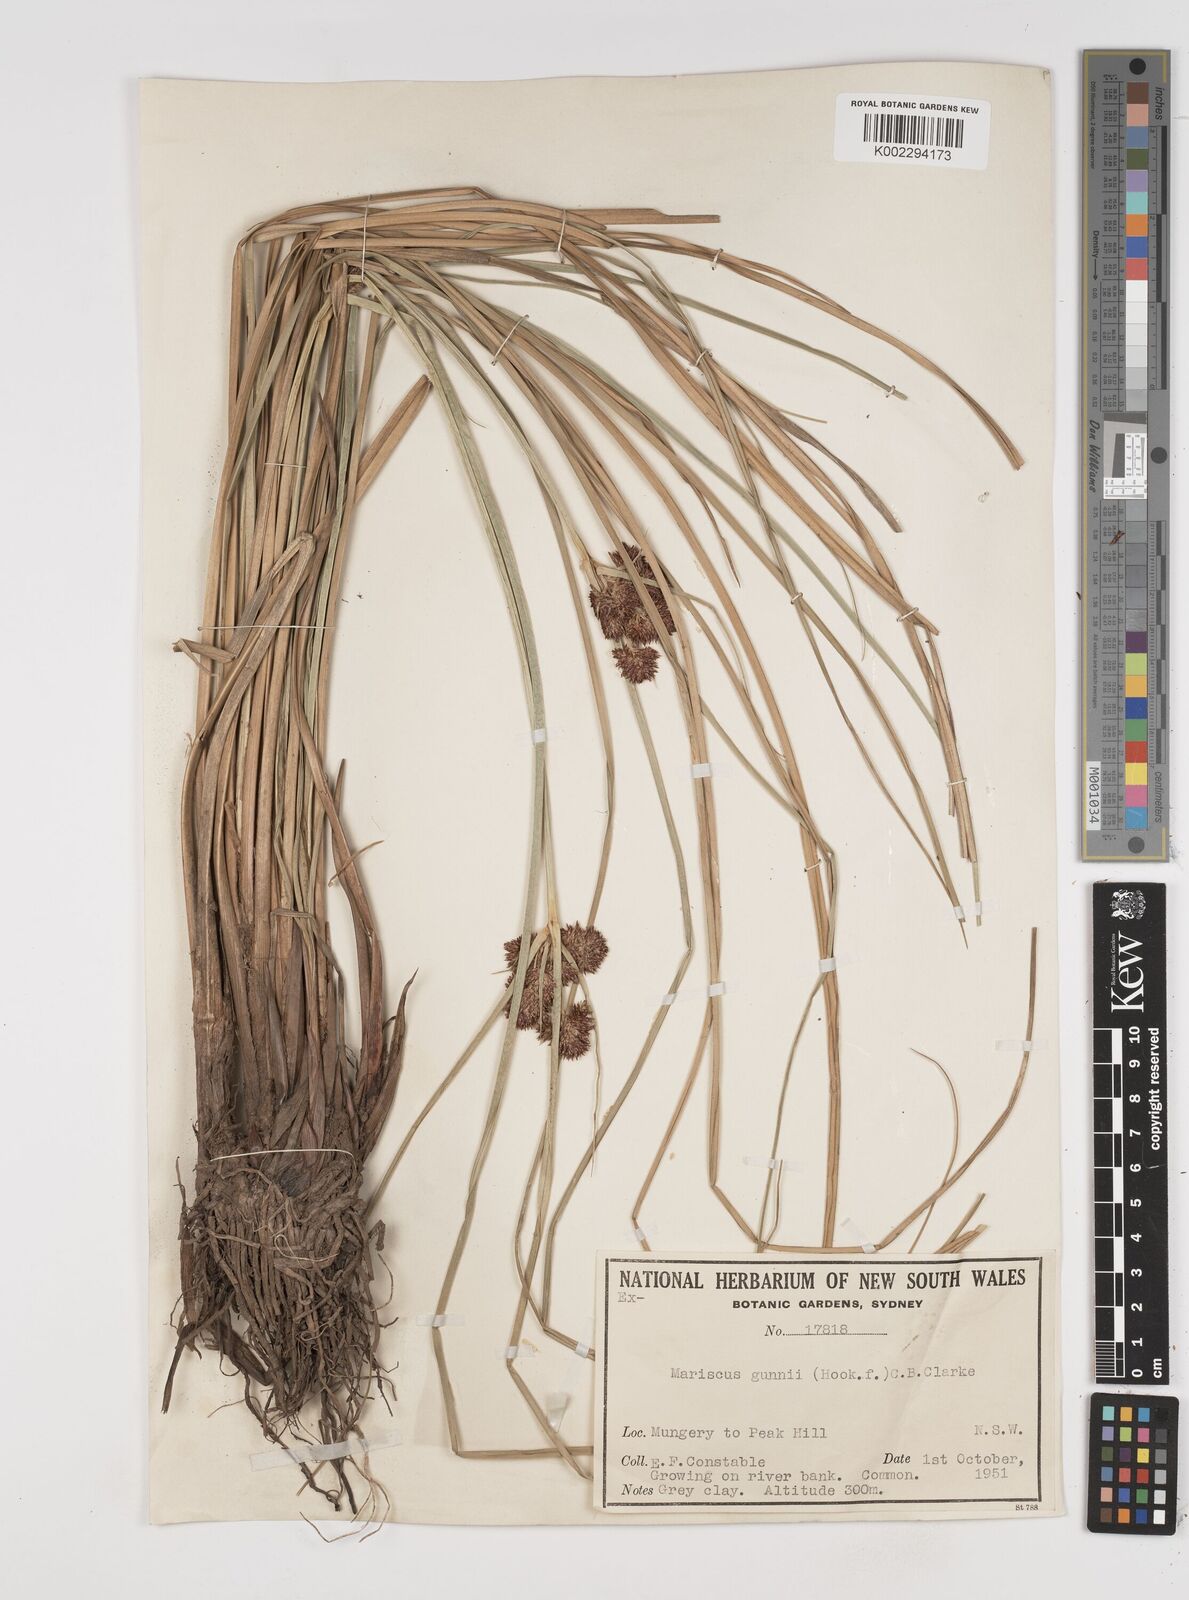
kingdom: Plantae
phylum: Tracheophyta
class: Liliopsida
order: Poales
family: Cyperaceae
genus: Cyperus
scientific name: Cyperus gunnii
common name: Flecked flat-sedge
